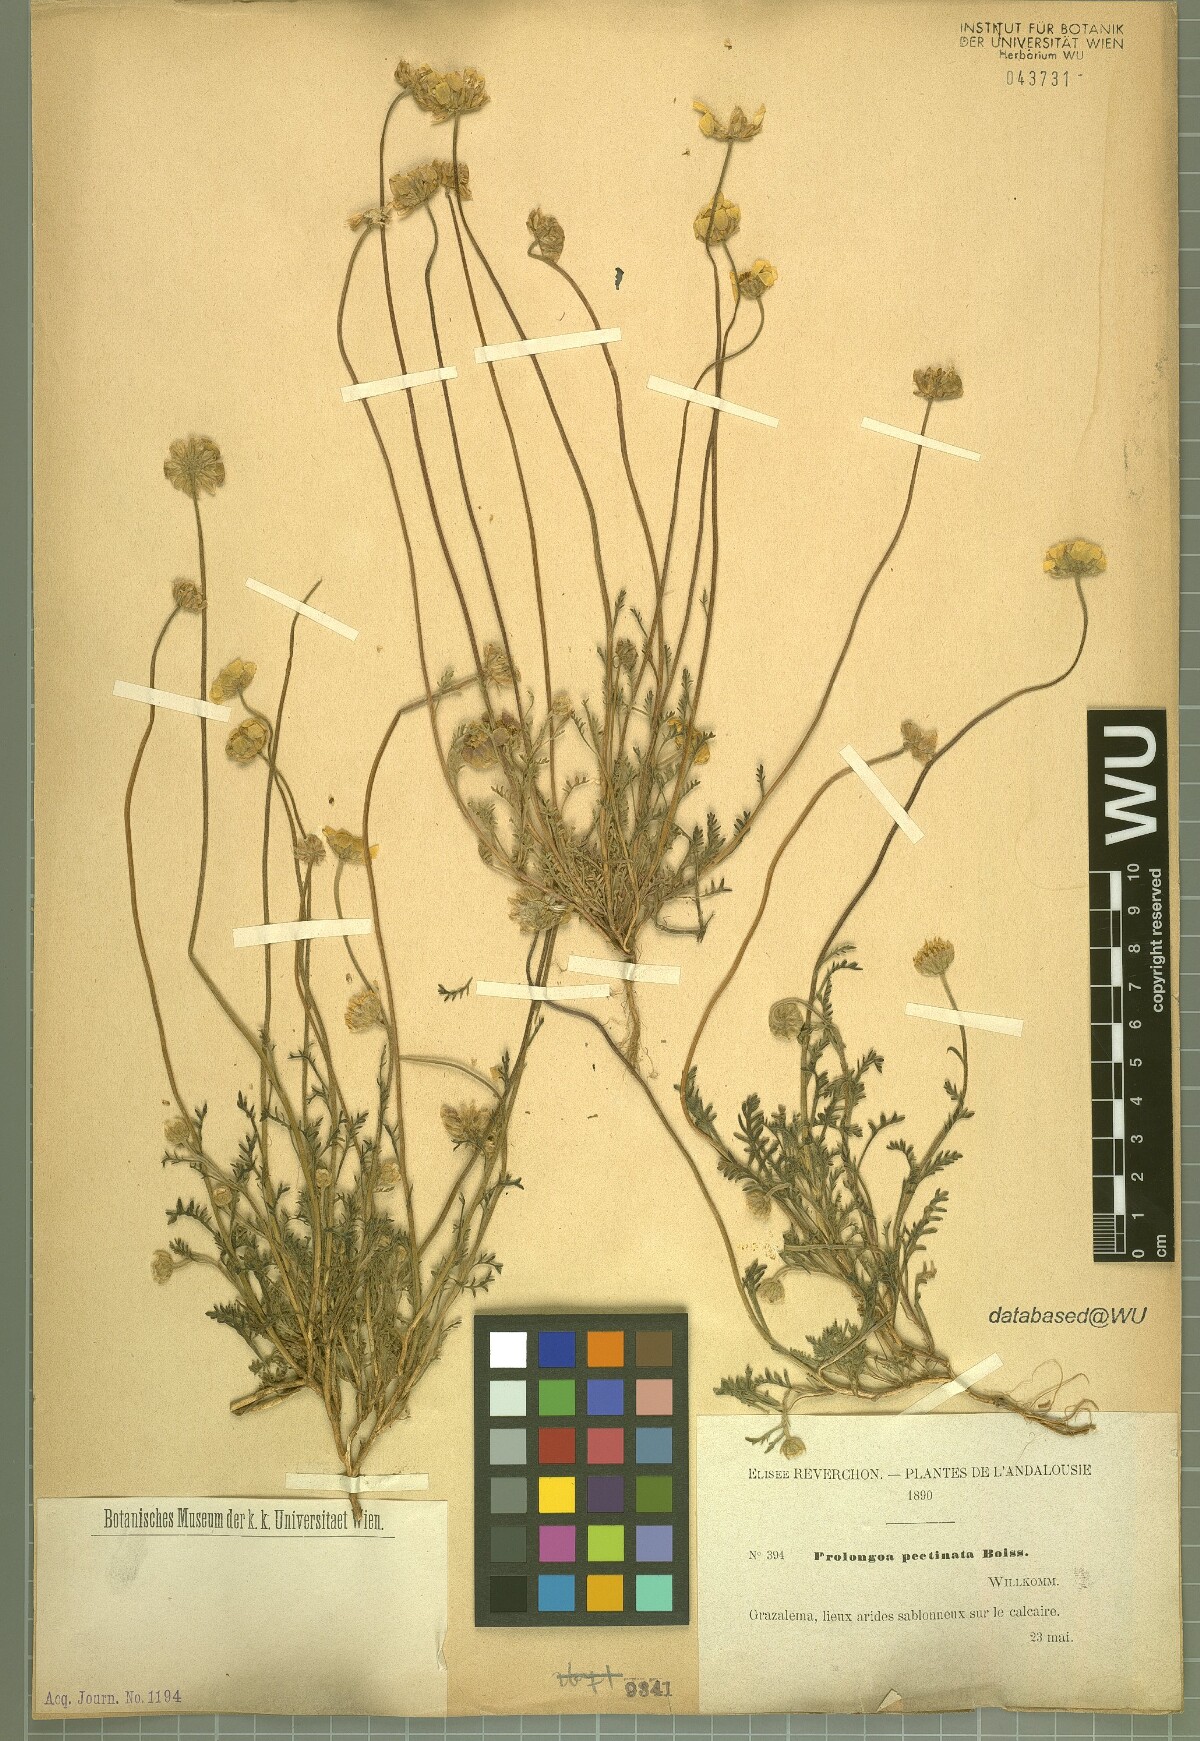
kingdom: Plantae
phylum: Tracheophyta
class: Magnoliopsida
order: Asterales
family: Asteraceae
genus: Leucanthemopsis
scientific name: Leucanthemopsis pectinata
